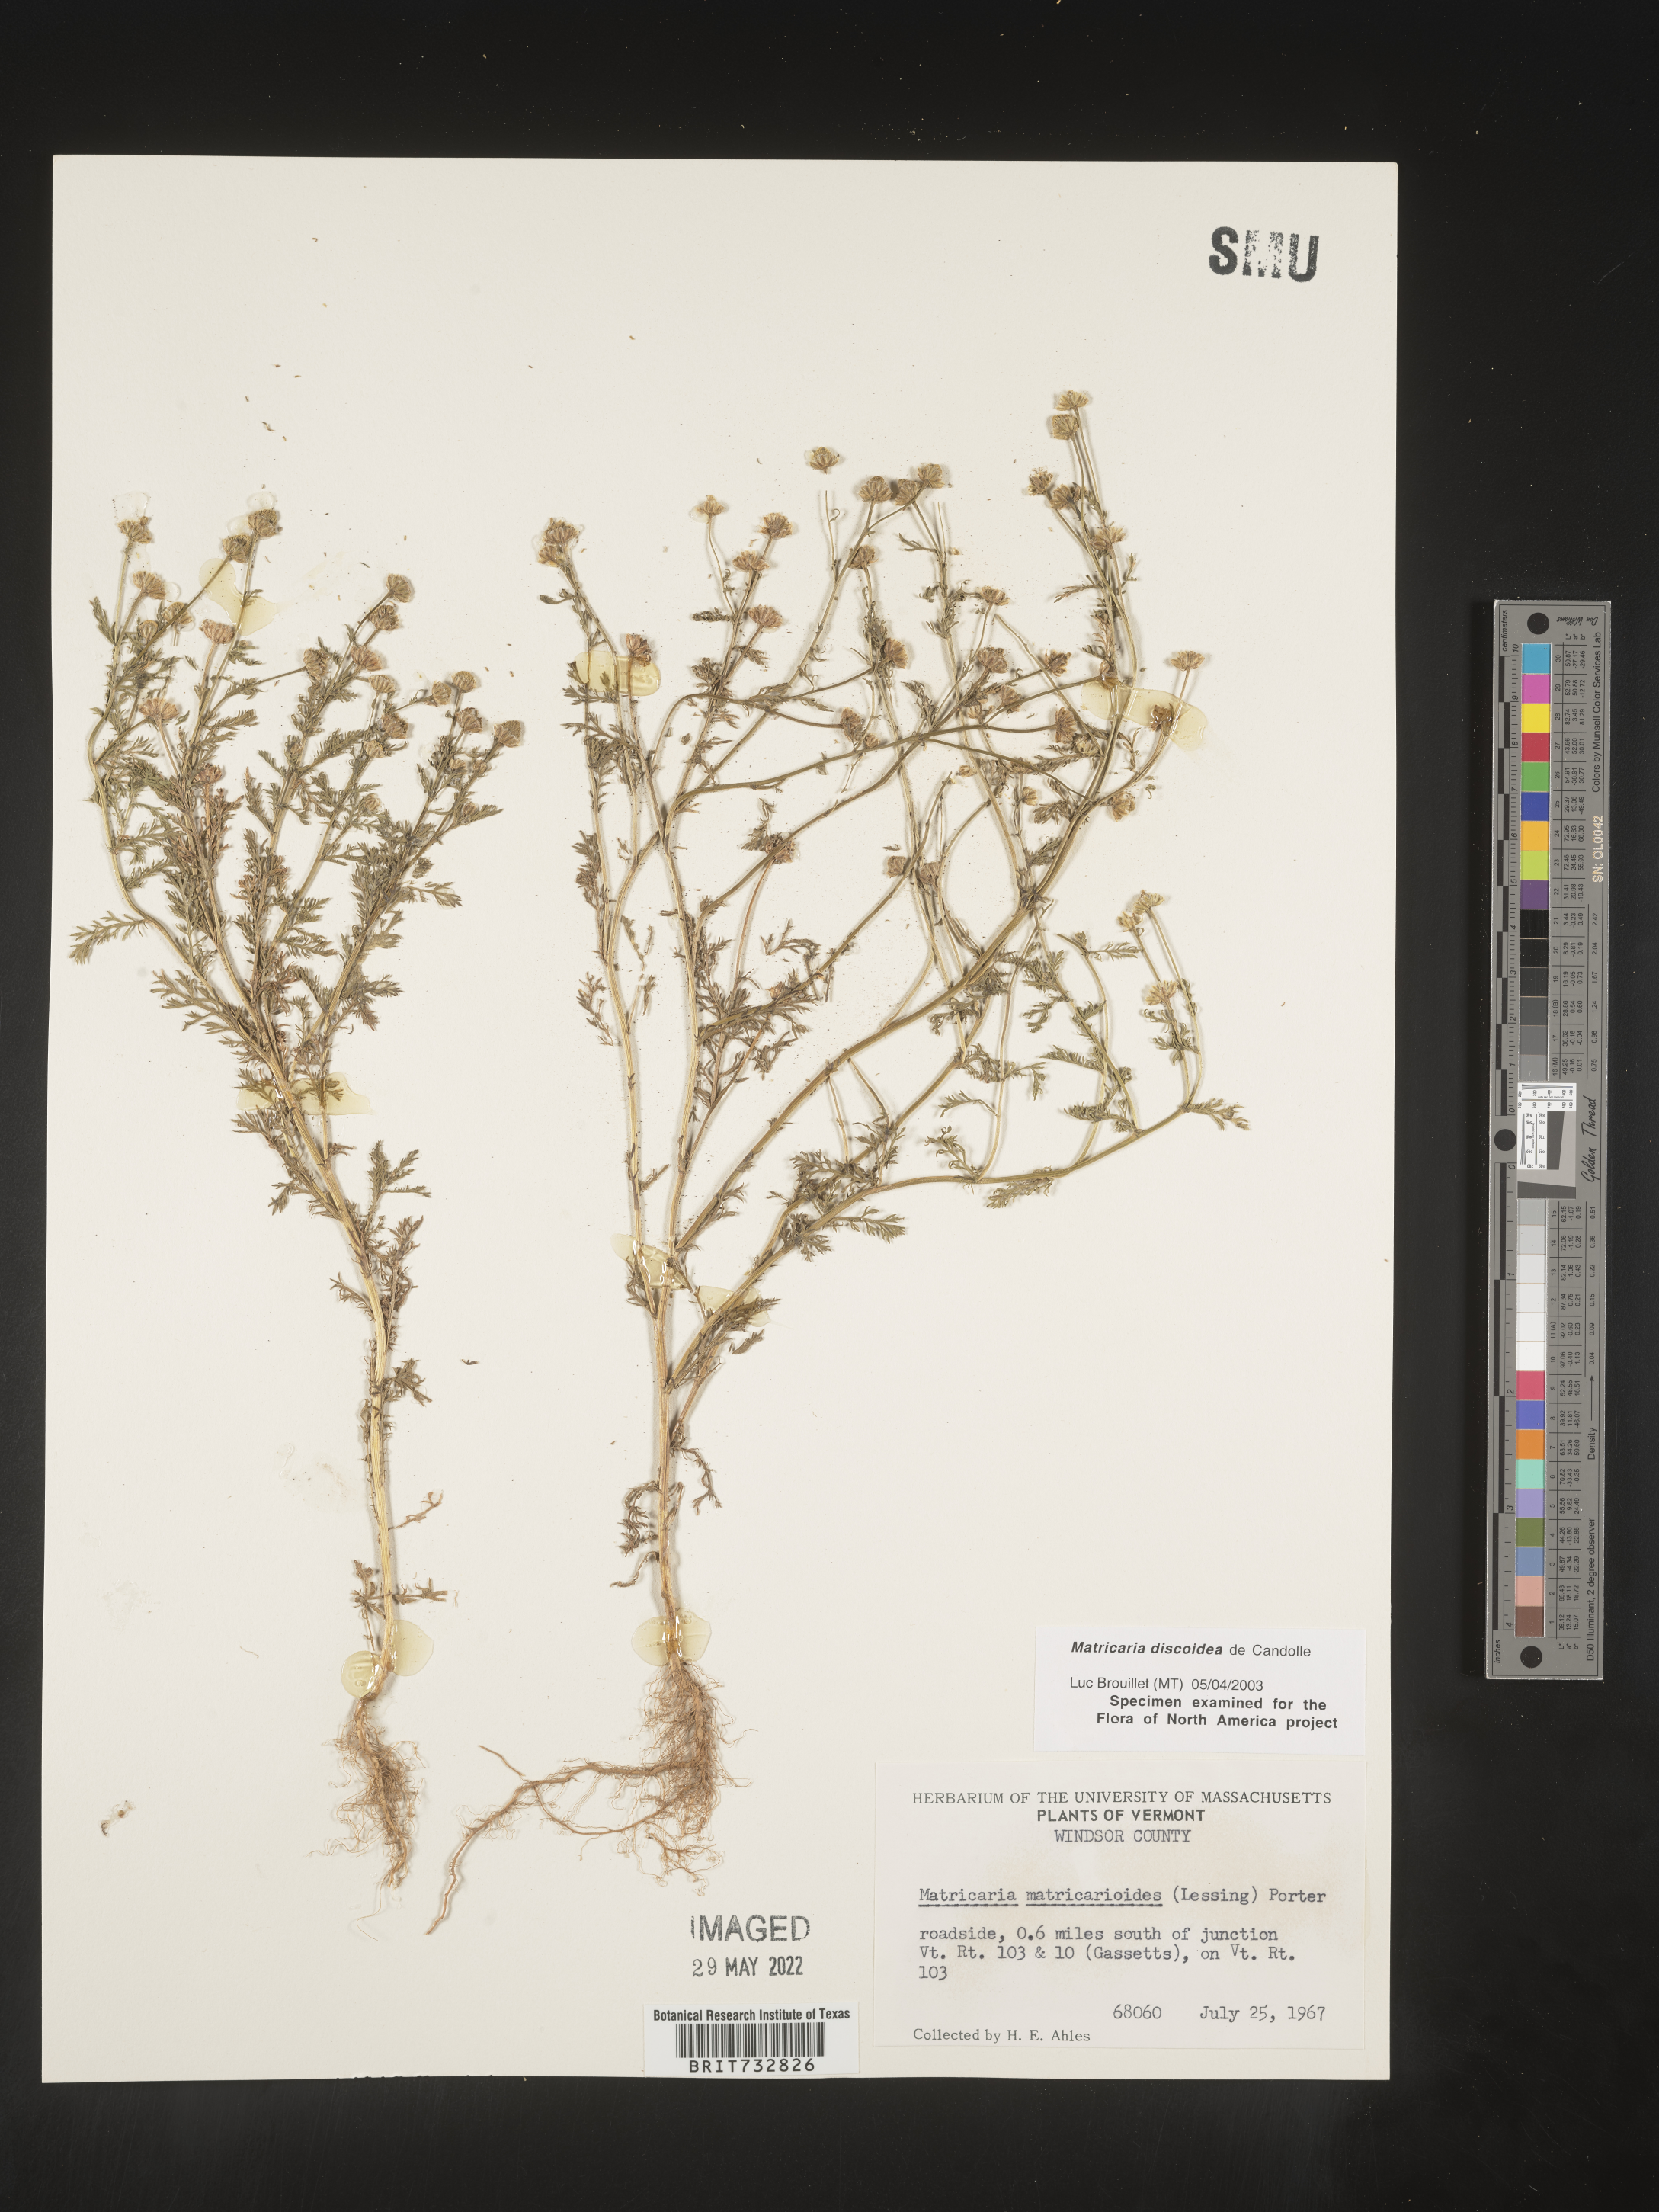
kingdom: Plantae
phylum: Tracheophyta
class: Magnoliopsida
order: Asterales
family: Asteraceae
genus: Matricaria
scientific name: Matricaria discoidea
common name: Disc mayweed
